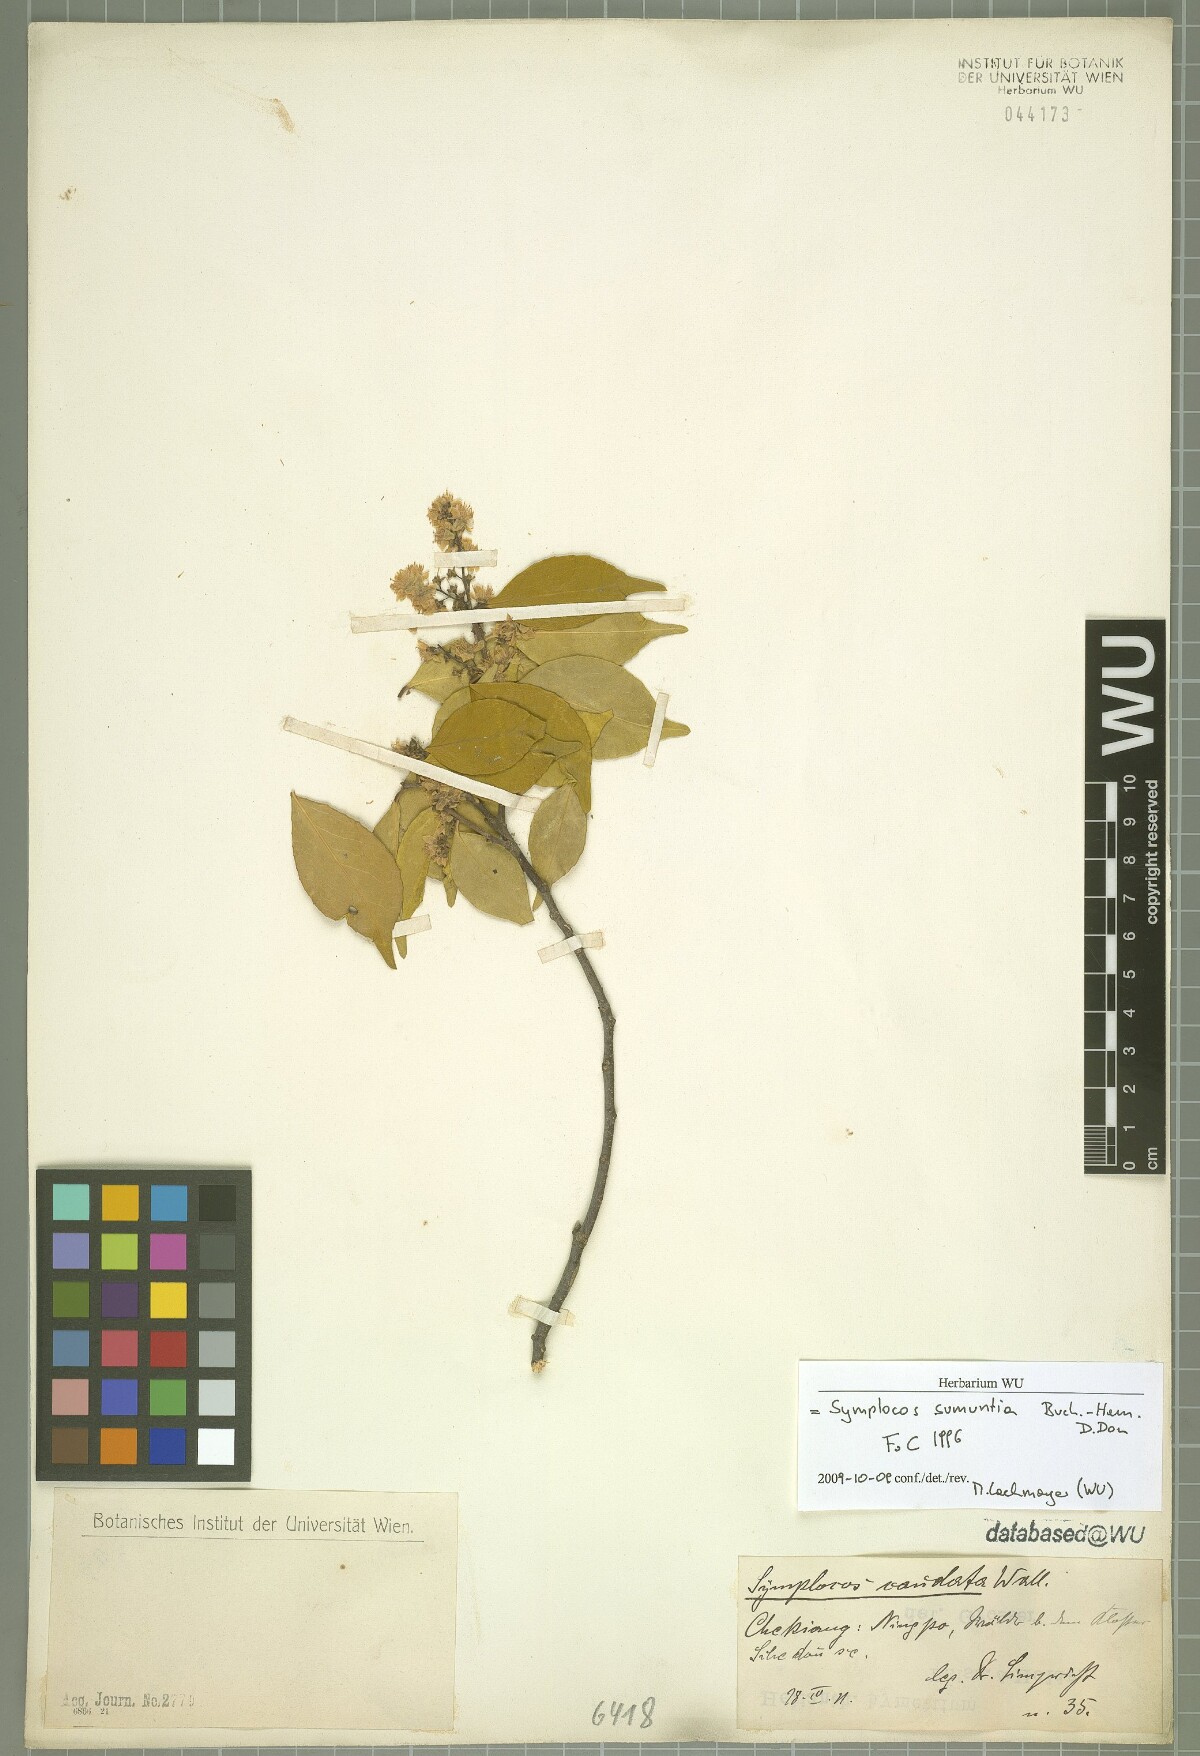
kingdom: Plantae
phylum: Tracheophyta
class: Magnoliopsida
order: Ericales
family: Symplocaceae
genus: Symplocos
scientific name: Symplocos sumuntia
